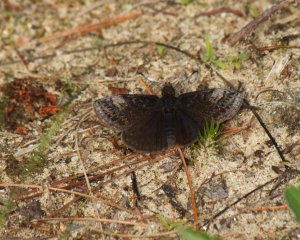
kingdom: Animalia
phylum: Arthropoda
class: Insecta
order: Lepidoptera
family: Hesperiidae
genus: Erynnis
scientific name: Erynnis icelus
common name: Dreamy Duskywing
